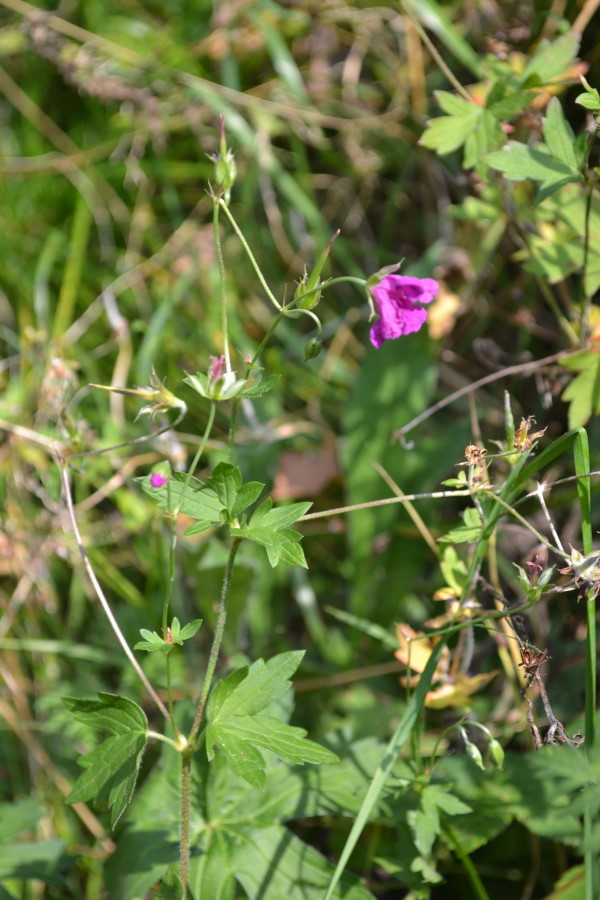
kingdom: Plantae
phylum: Tracheophyta
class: Magnoliopsida
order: Geraniales
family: Geraniaceae
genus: Geranium
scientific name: Geranium palustre
